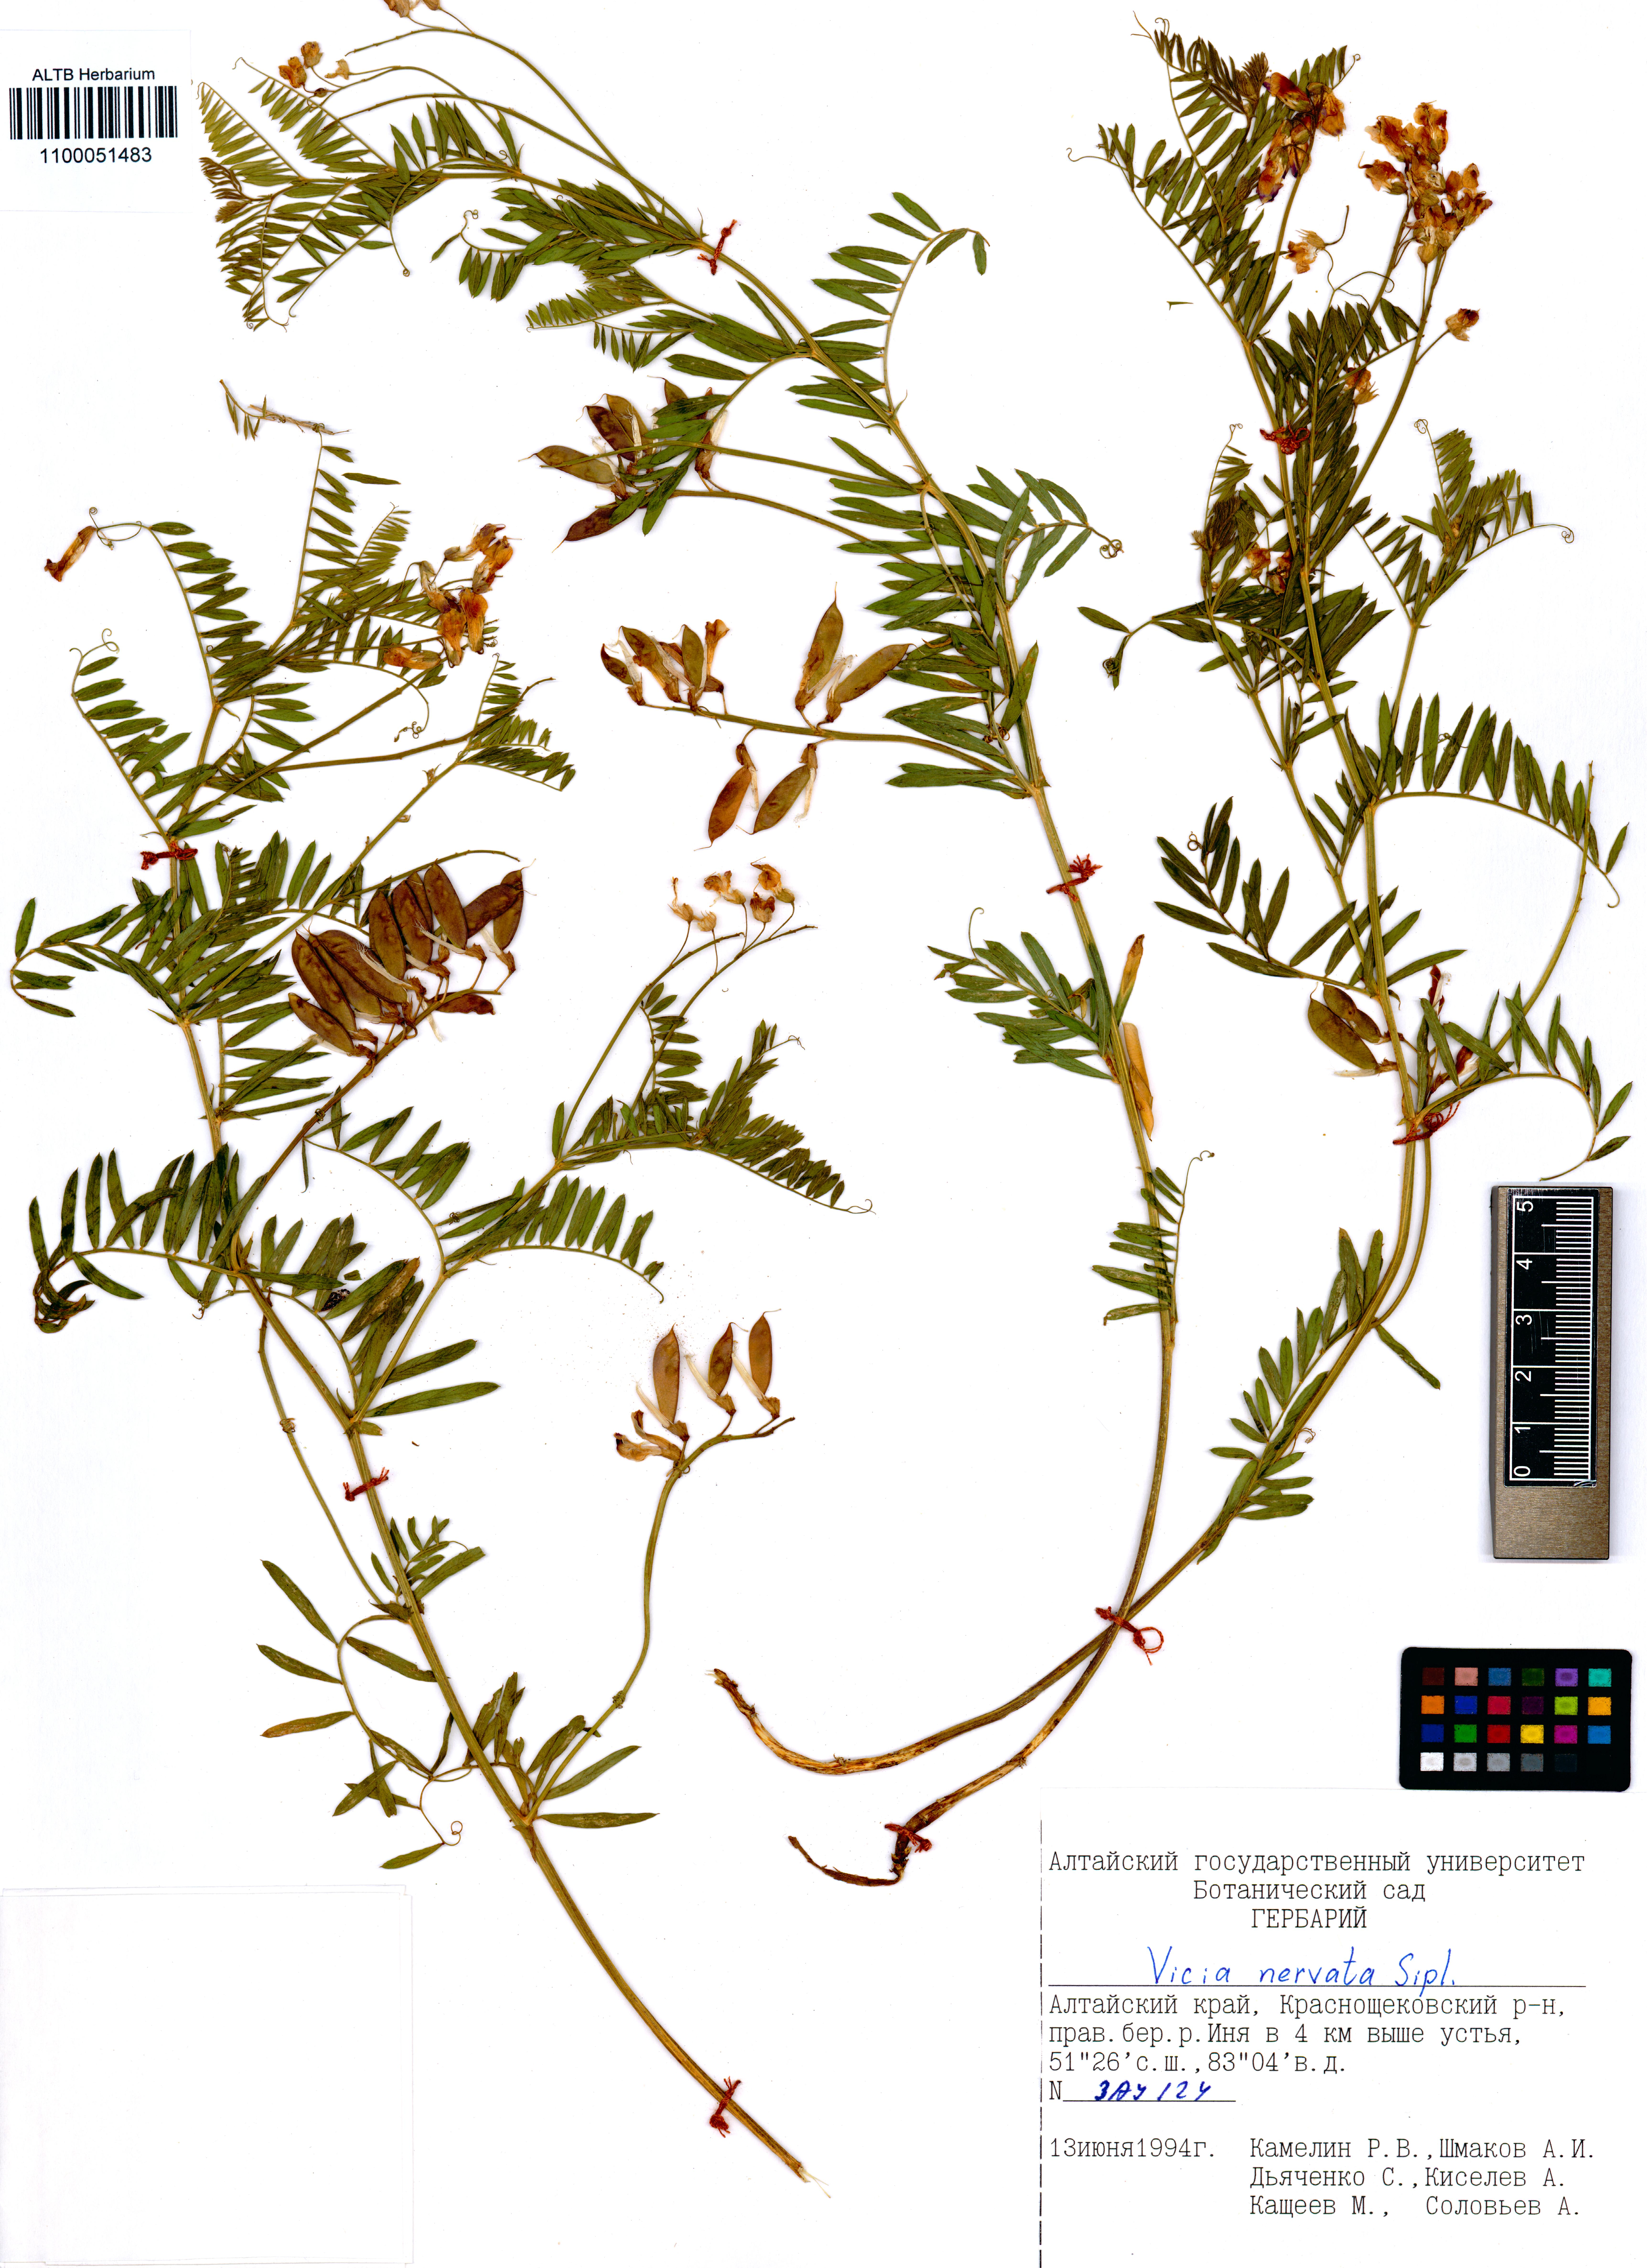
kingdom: Plantae
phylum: Tracheophyta
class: Magnoliopsida
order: Fabales
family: Fabaceae
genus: Vicia
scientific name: Vicia multicaulis
